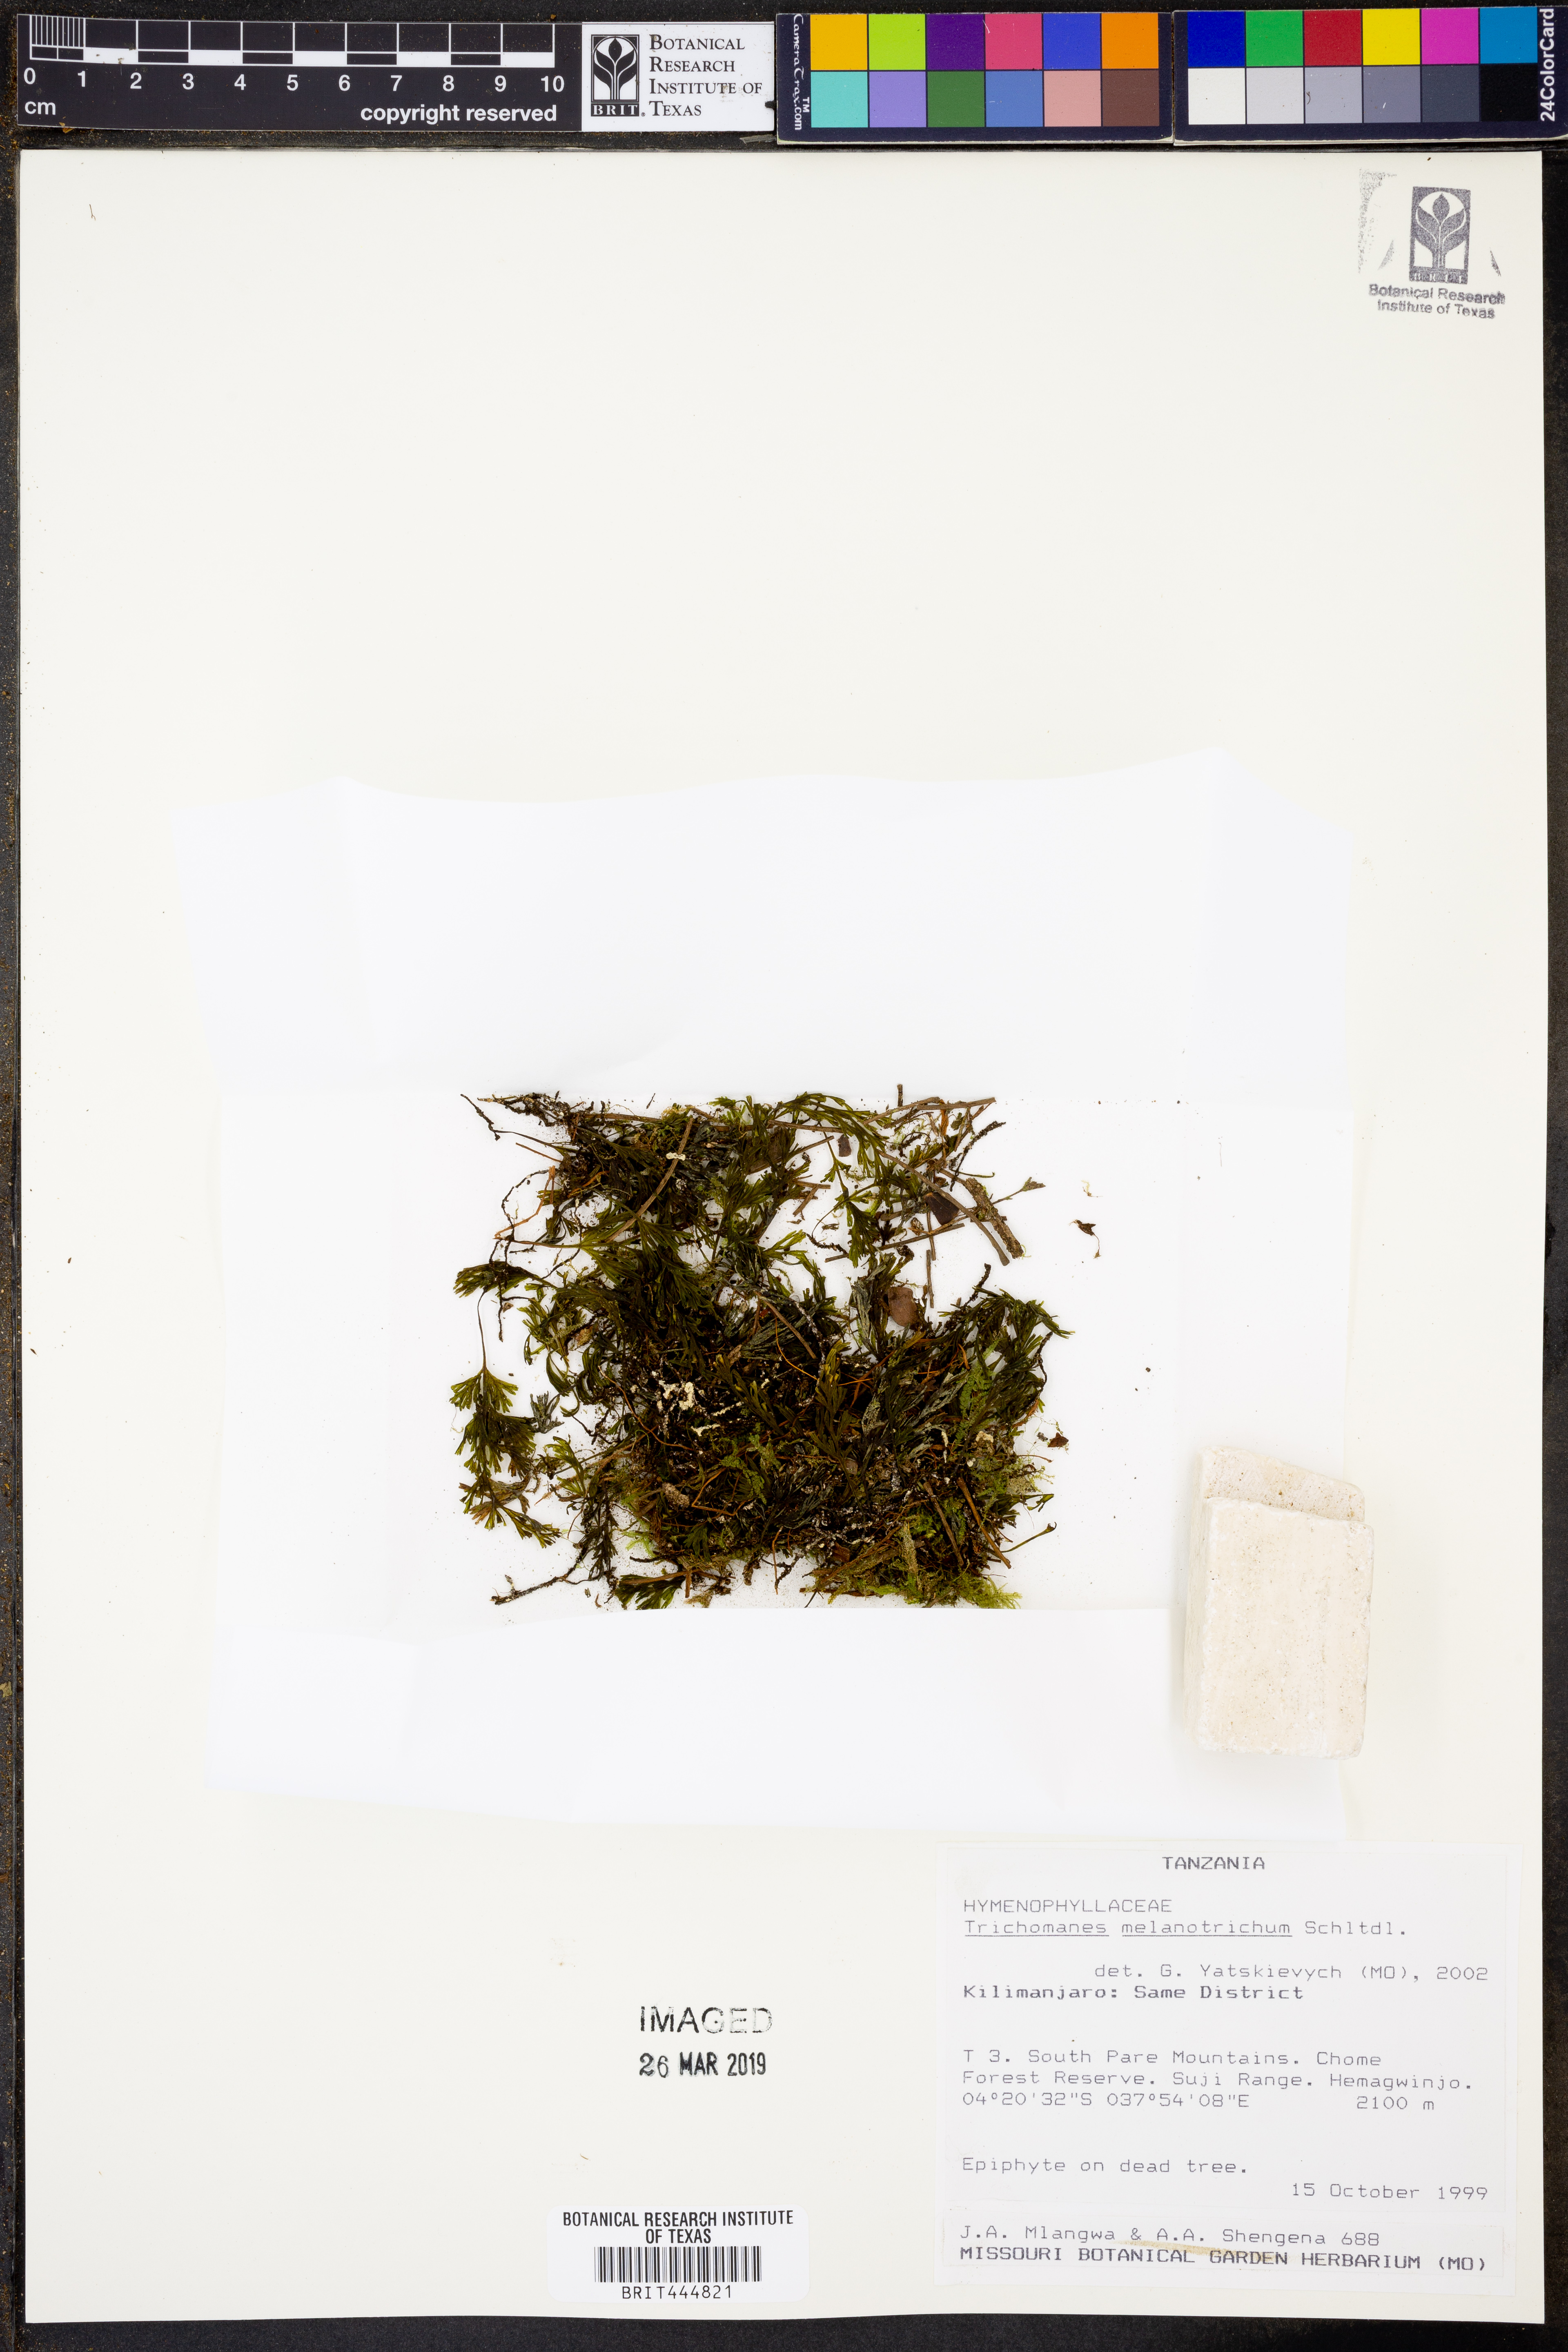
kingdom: Plantae
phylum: Tracheophyta
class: Polypodiopsida
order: Hymenophyllales
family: Hymenophyllaceae
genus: Crepidomanes
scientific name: Crepidomanes melanotrichum
